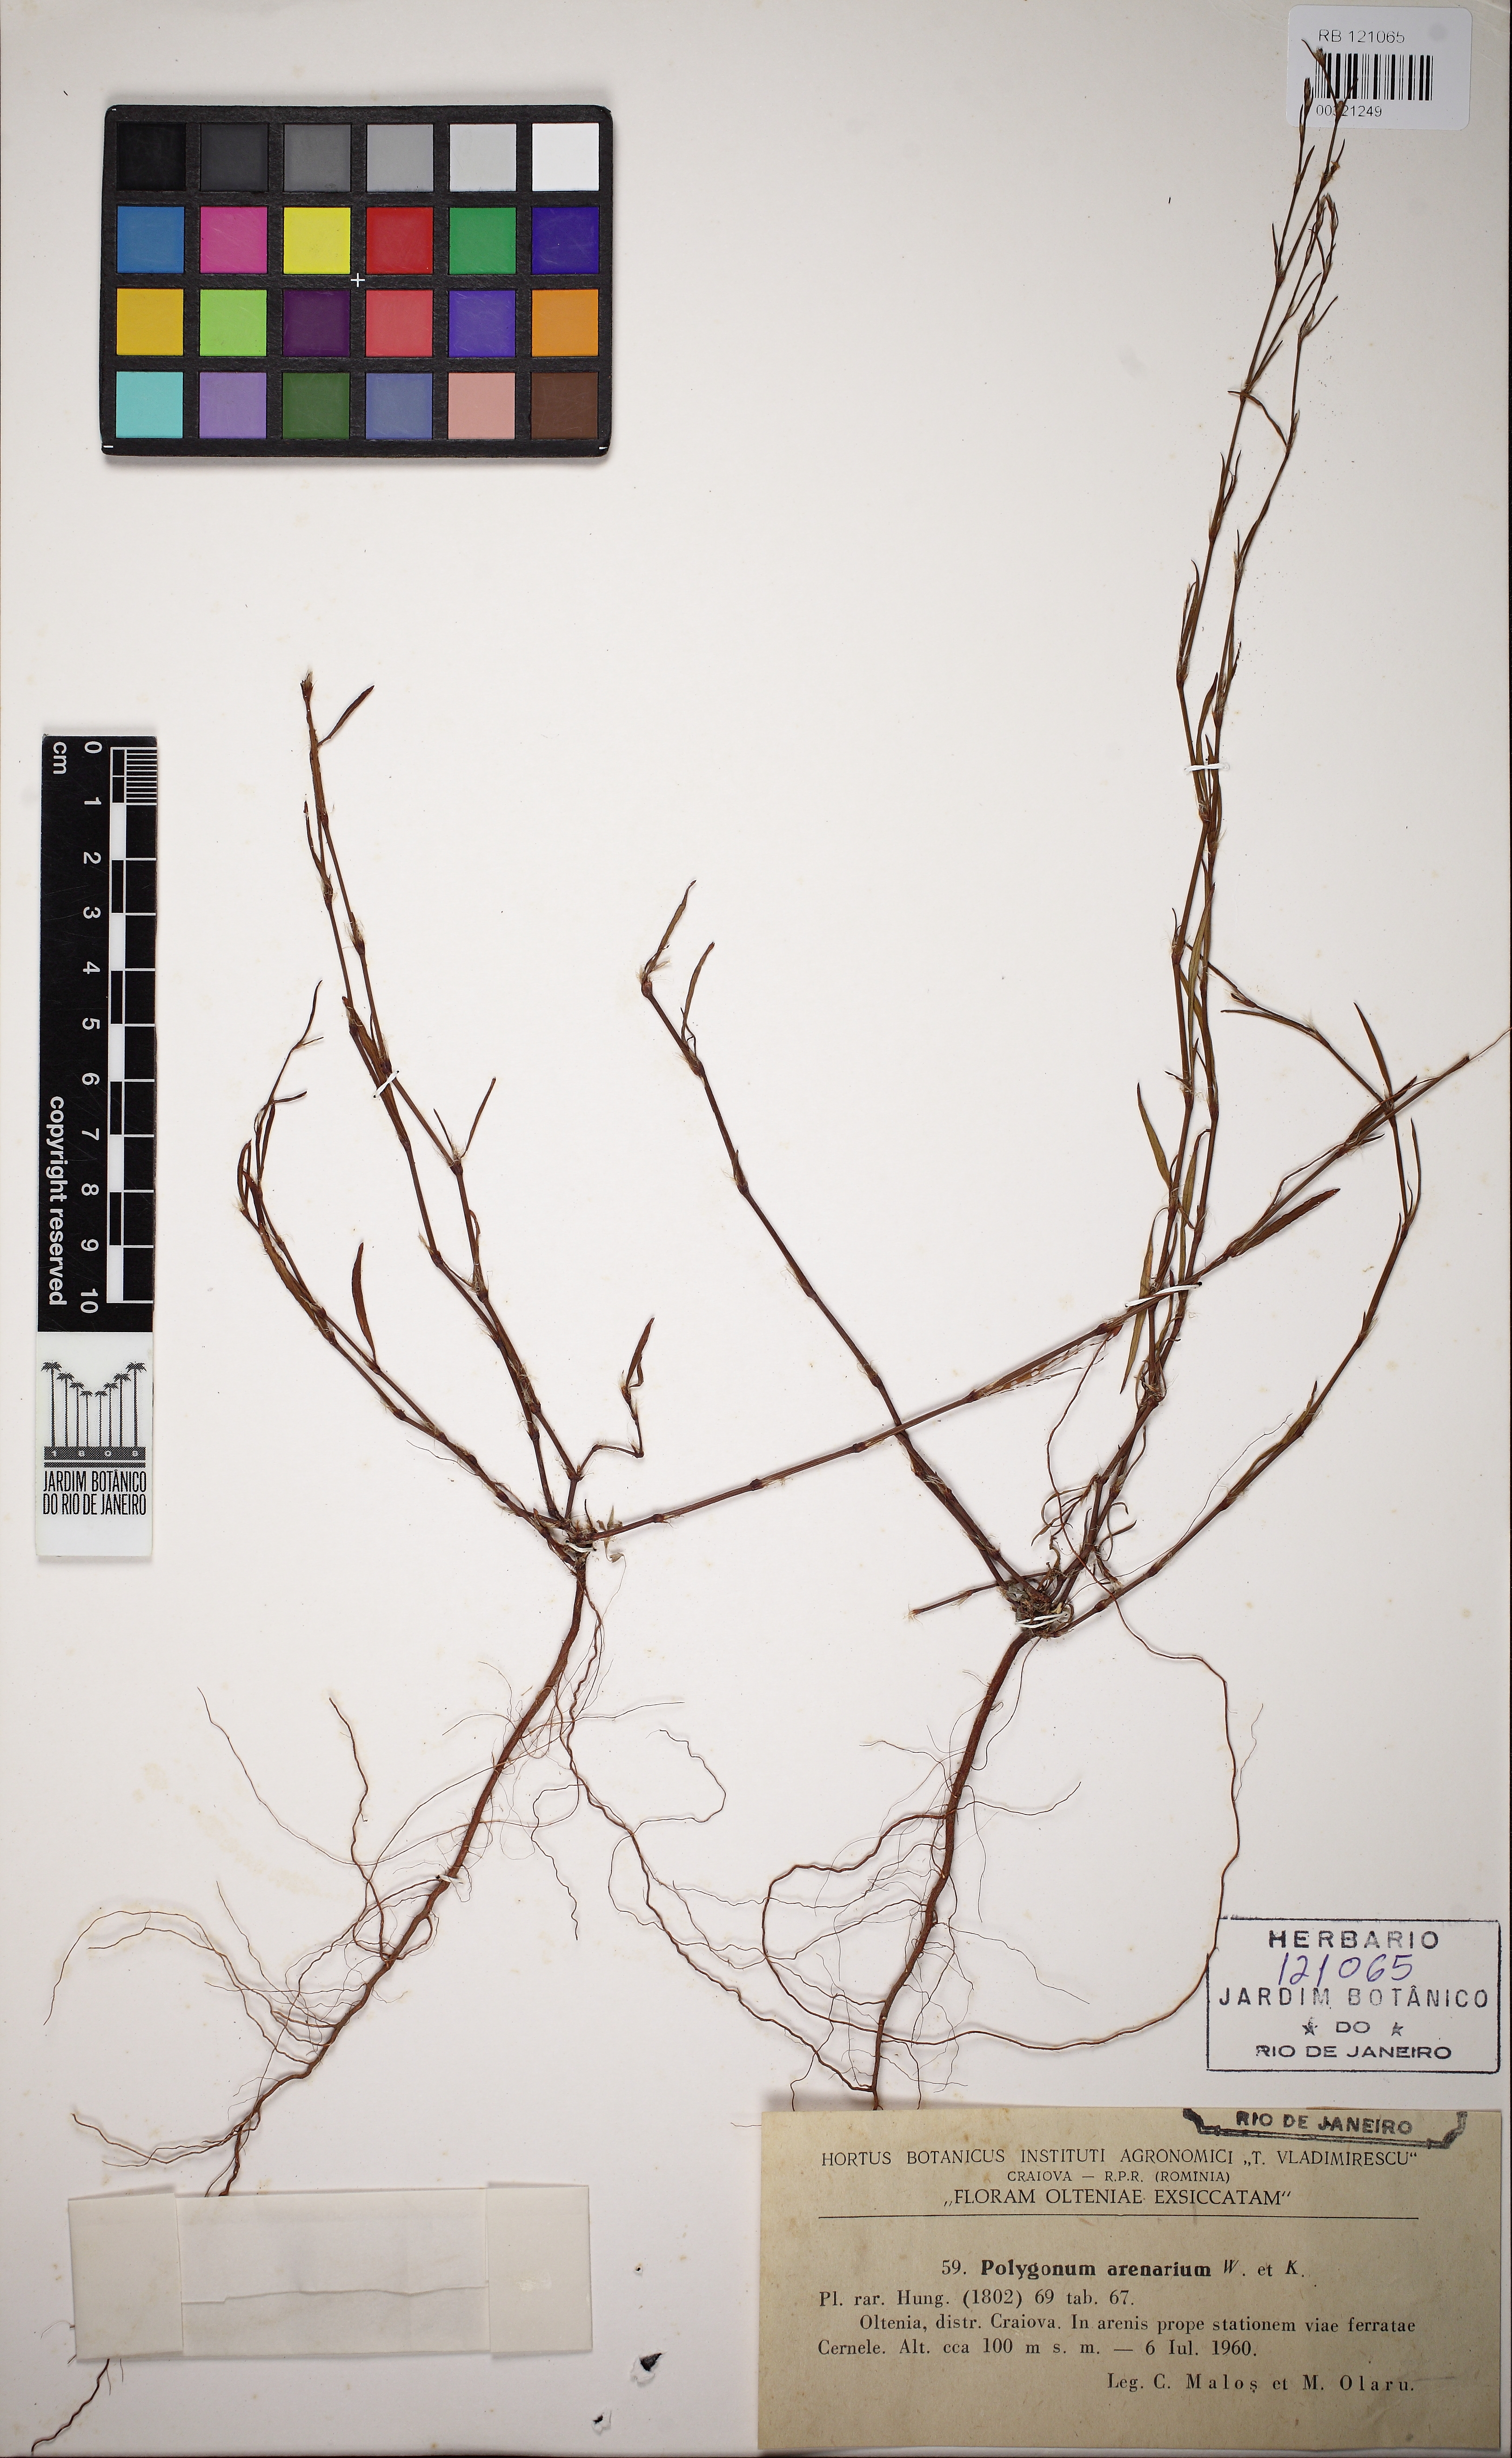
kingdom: Plantae
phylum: Tracheophyta
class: Magnoliopsida
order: Caryophyllales
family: Polygonaceae
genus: Polygonum
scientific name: Polygonum aviculare
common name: Prostrate knotweed
